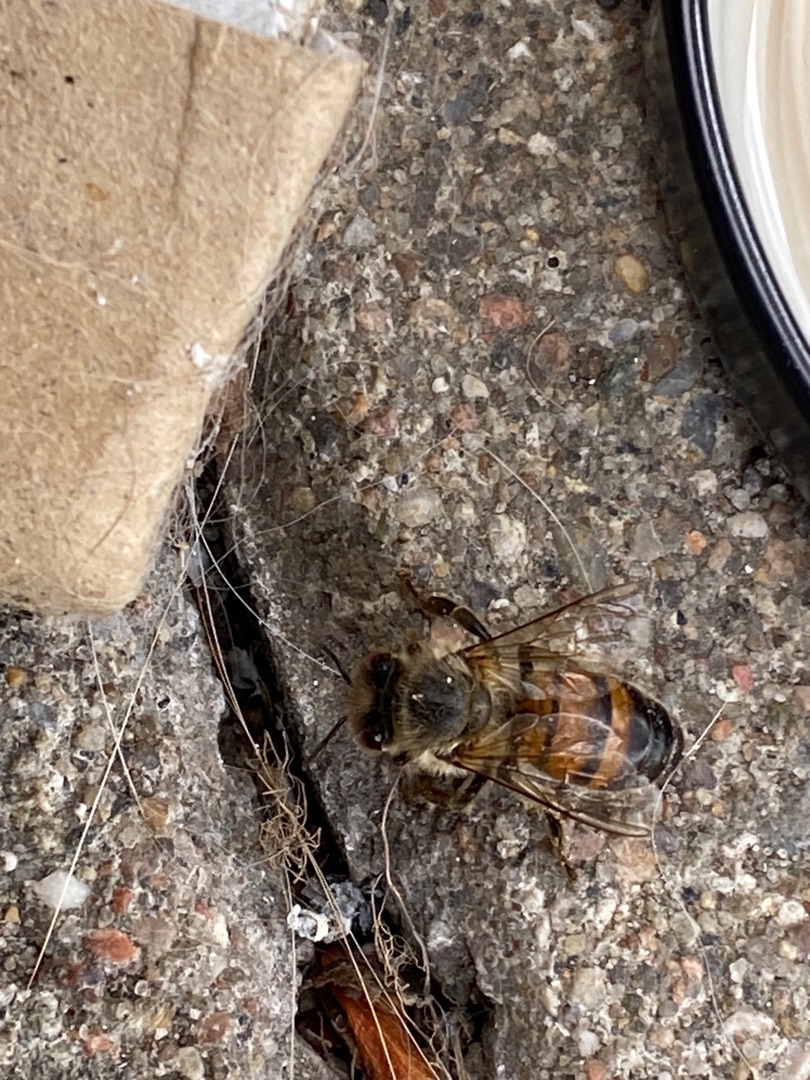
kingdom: Animalia
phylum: Arthropoda
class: Insecta
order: Hymenoptera
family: Apidae
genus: Apis
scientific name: Apis mellifera
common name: Honningbi
